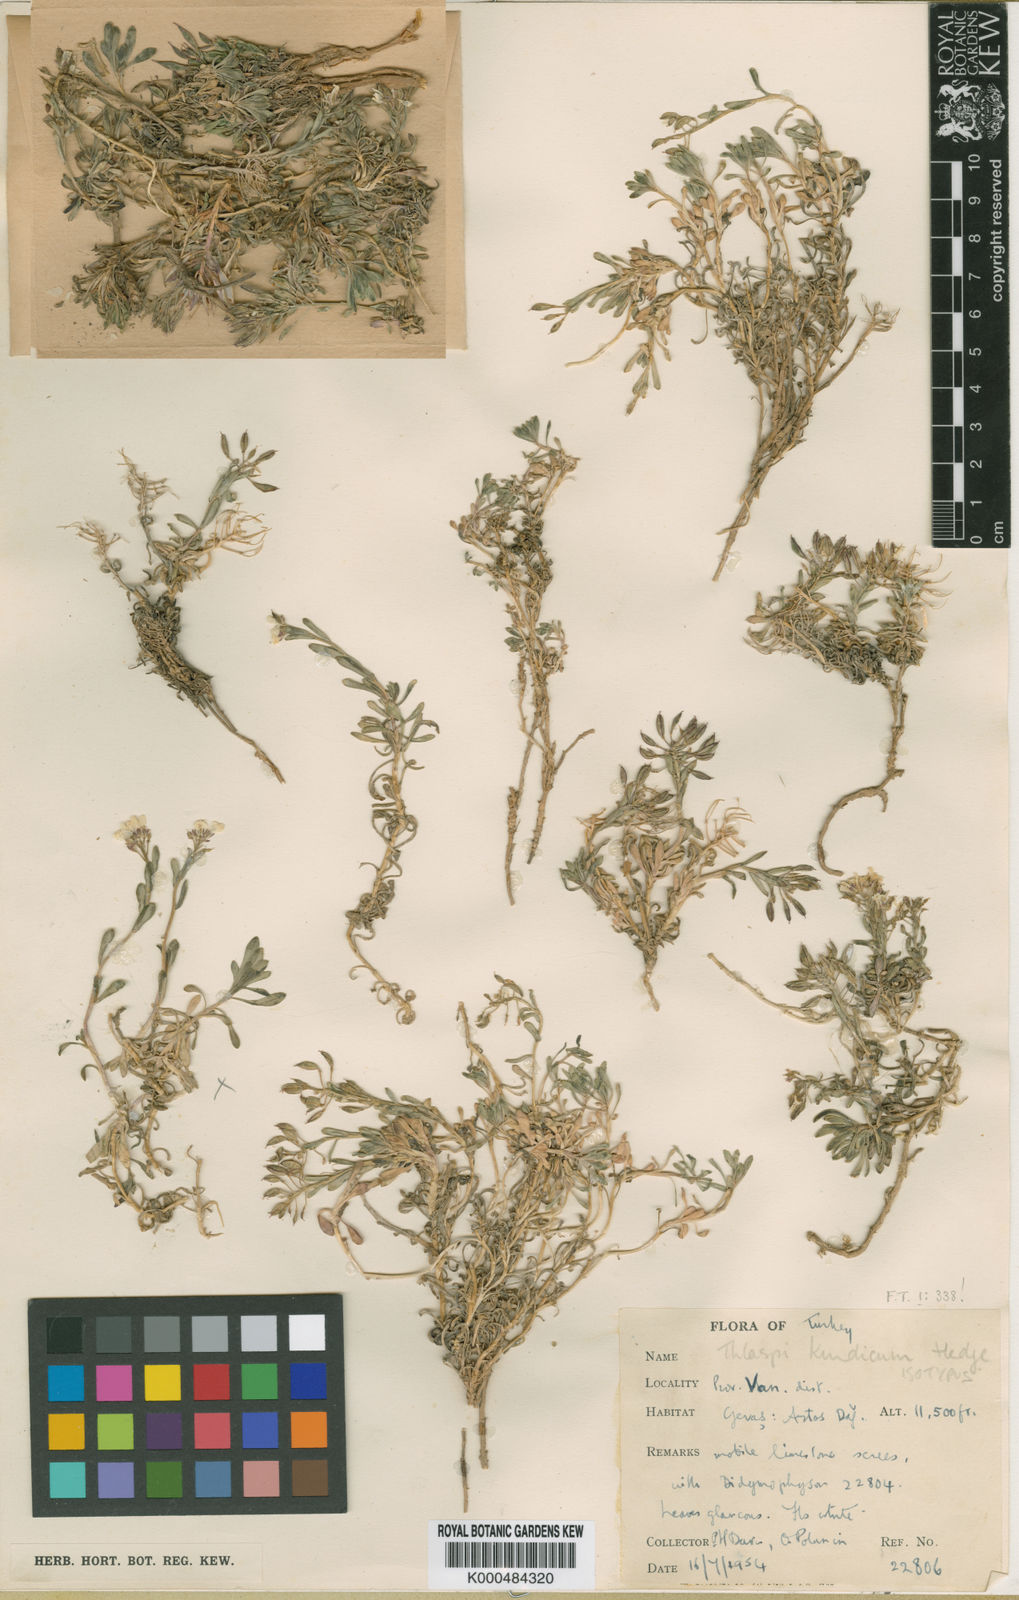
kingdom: Plantae
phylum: Tracheophyta
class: Magnoliopsida
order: Brassicales
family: Brassicaceae
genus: Noccaea
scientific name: Noccaea kurdica
